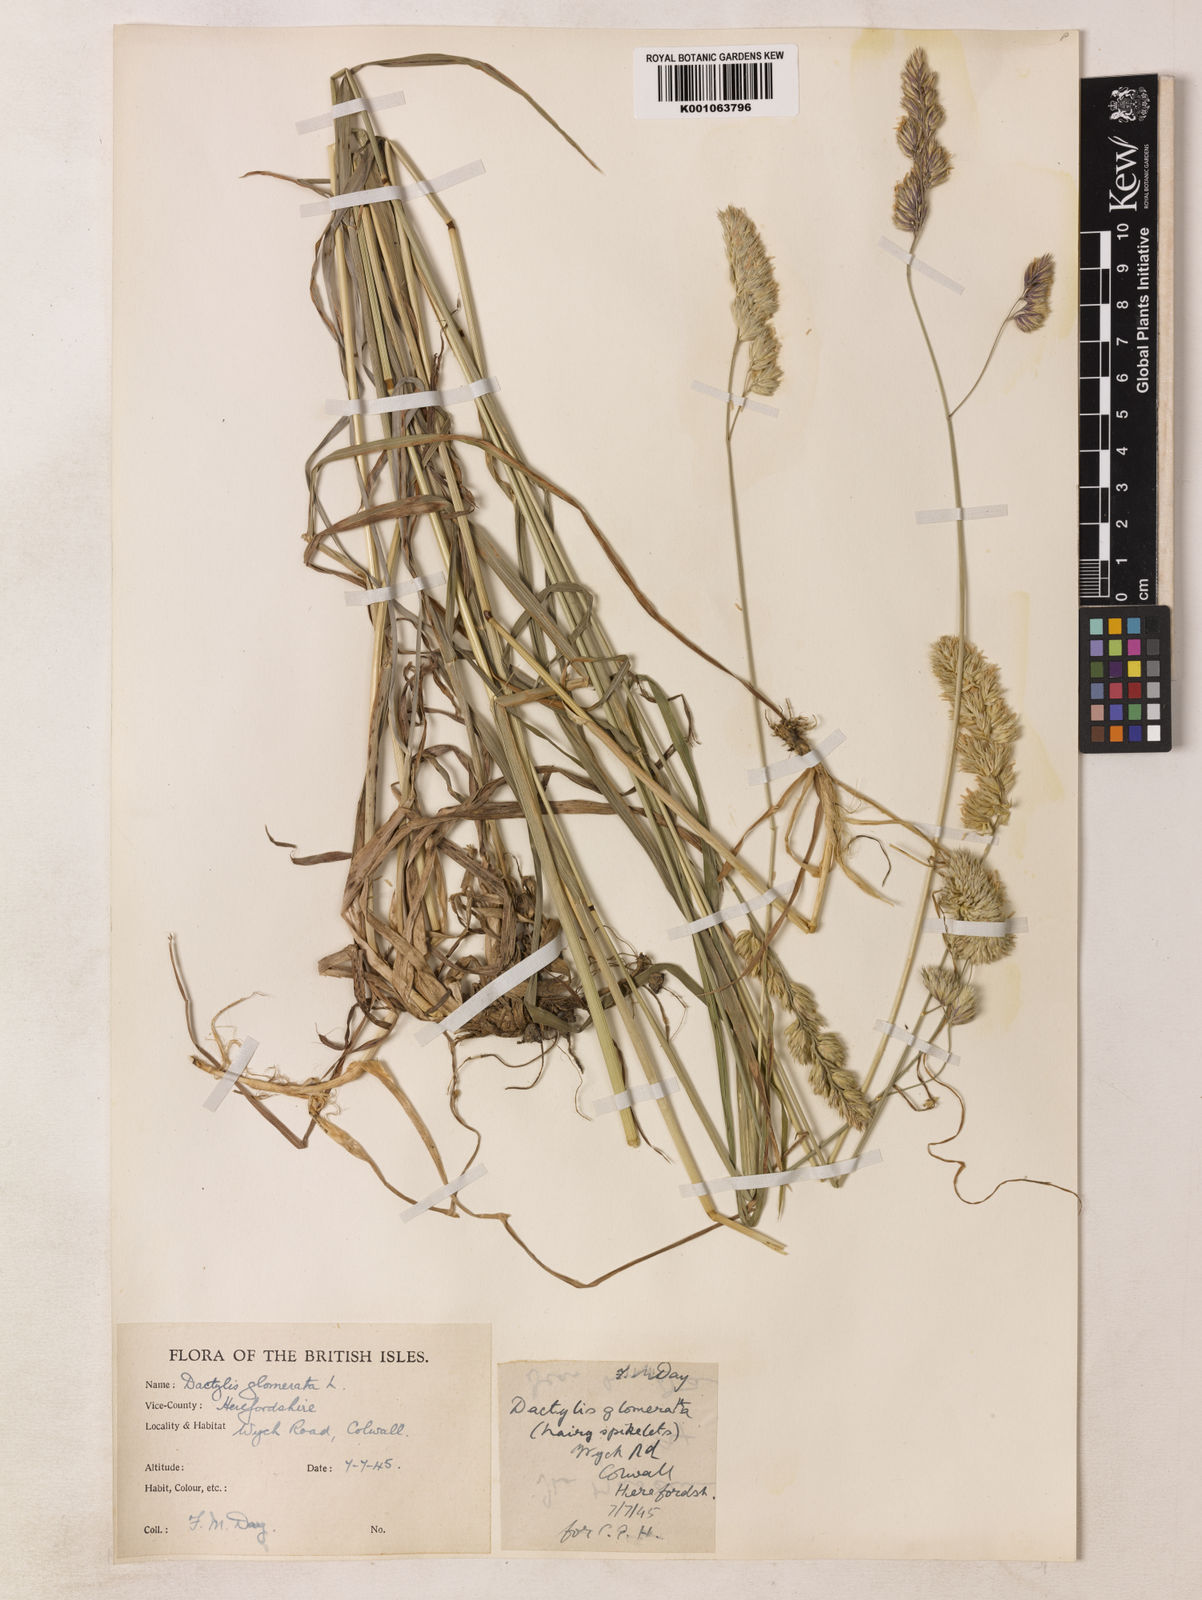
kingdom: Plantae
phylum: Tracheophyta
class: Liliopsida
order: Poales
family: Poaceae
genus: Dactylis
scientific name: Dactylis glomerata
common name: Orchardgrass
